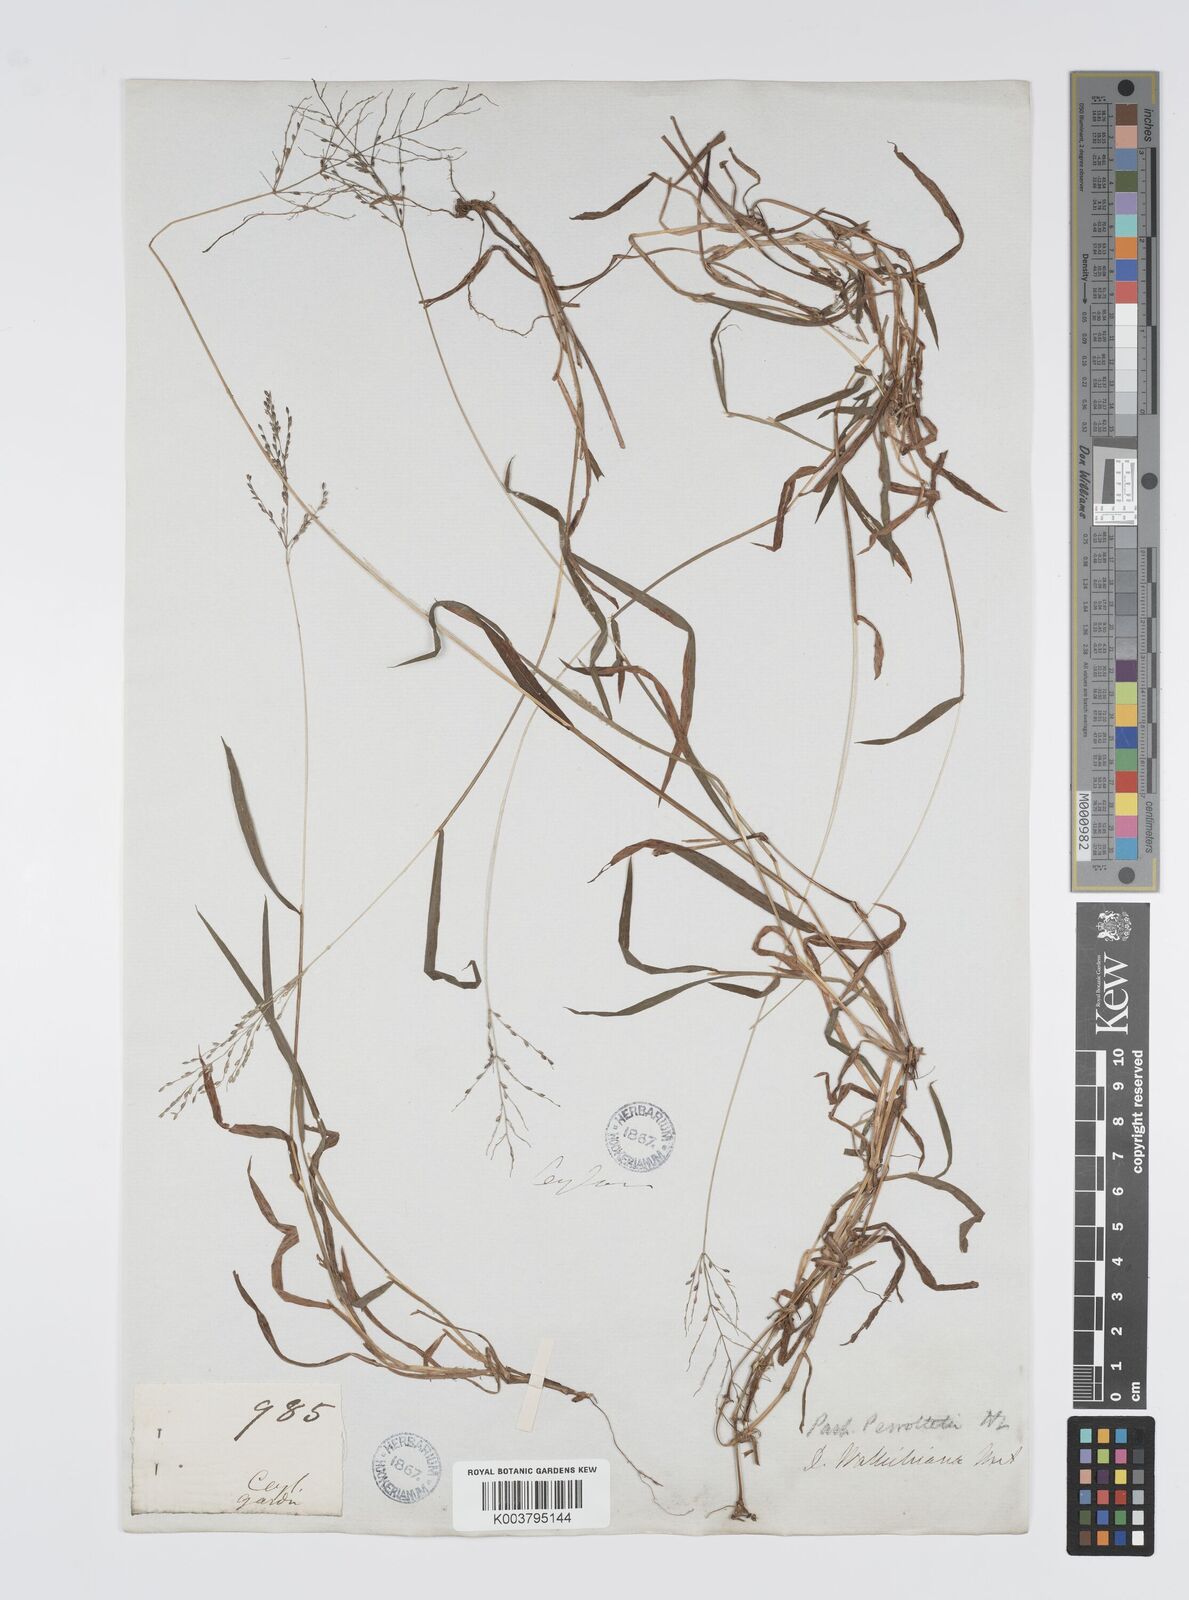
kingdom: Plantae
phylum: Tracheophyta
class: Liliopsida
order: Poales
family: Poaceae
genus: Digitaria
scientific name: Digitaria wallichiana
